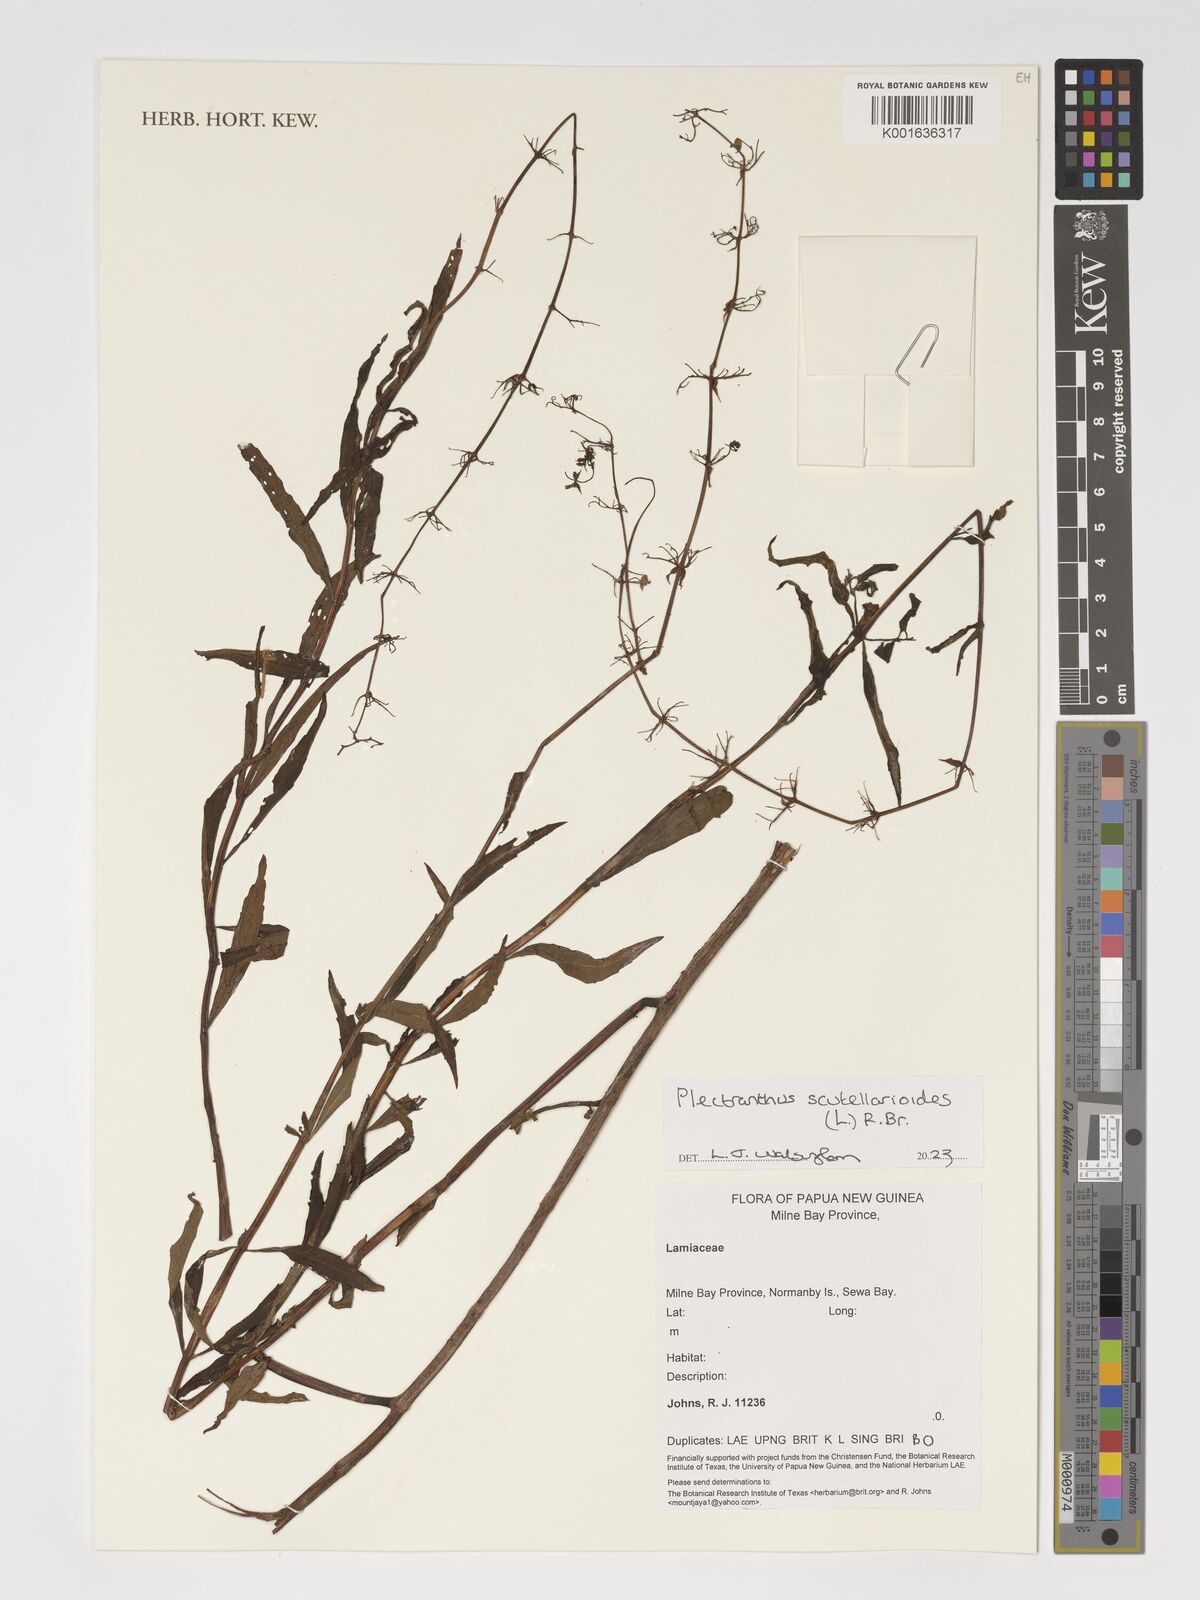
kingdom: Plantae
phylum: Tracheophyta
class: Magnoliopsida
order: Lamiales
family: Lamiaceae
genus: Coleus
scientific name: Coleus scutellarioides
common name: Coleus
